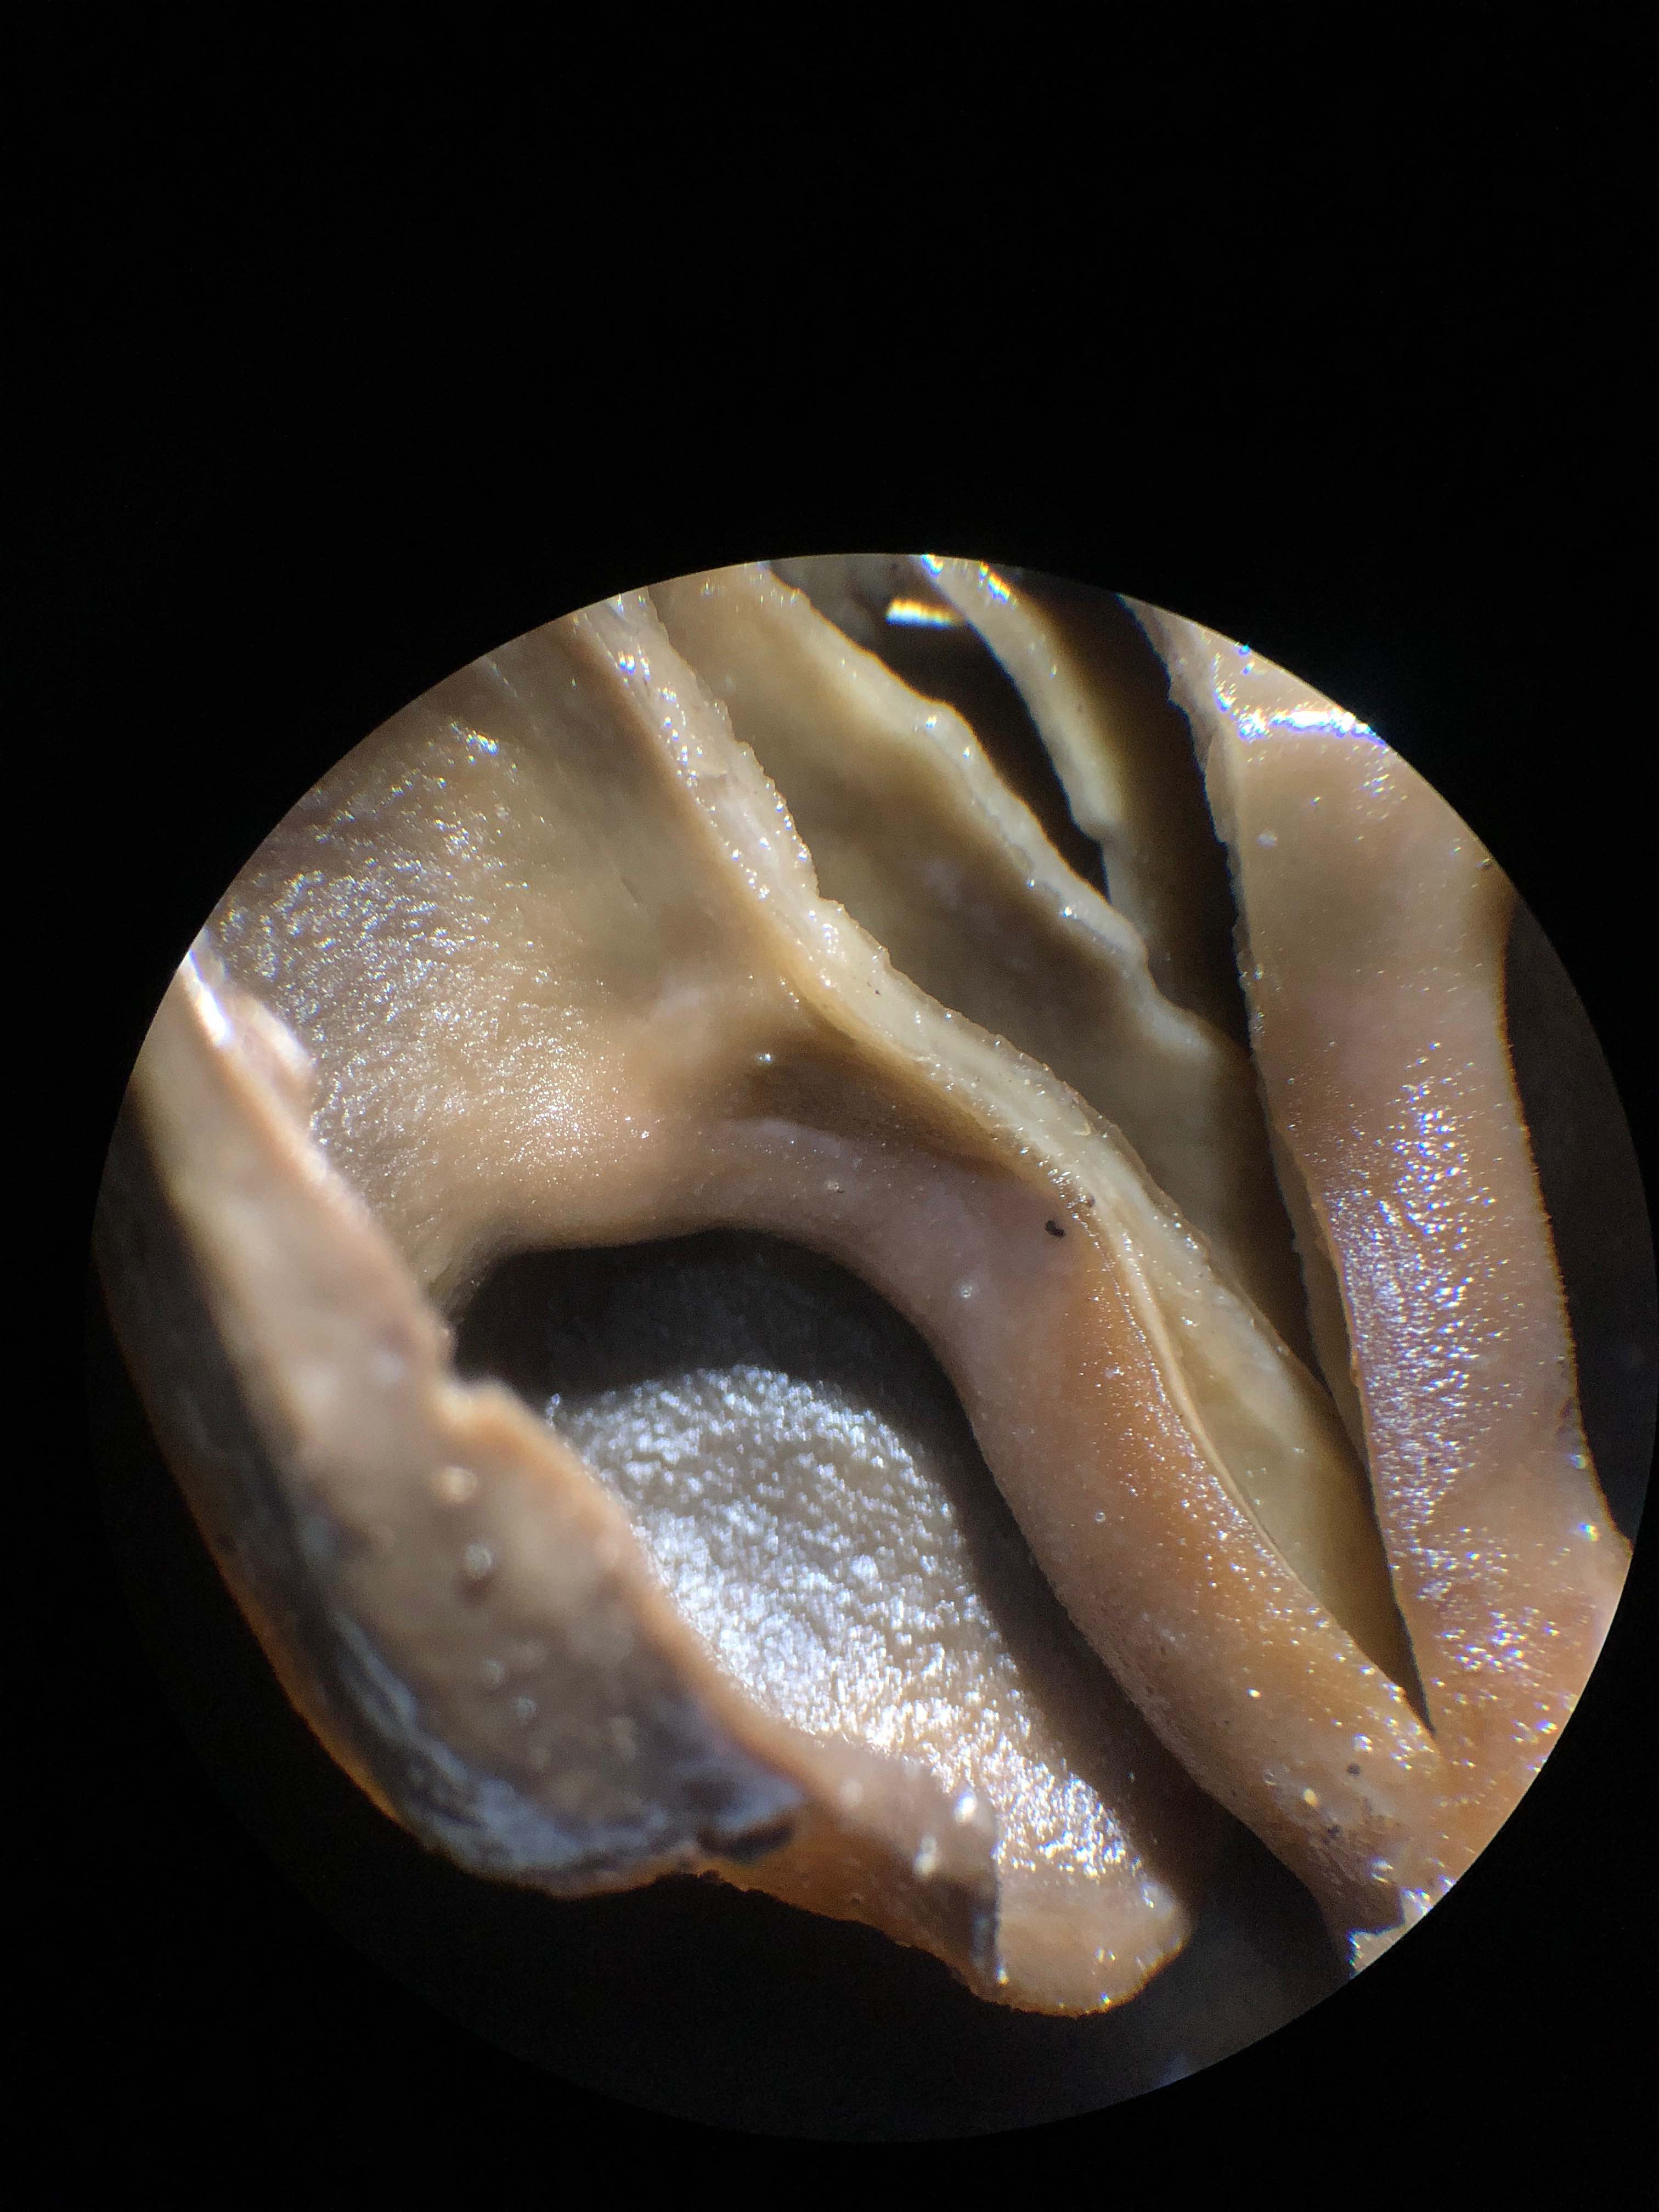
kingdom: Fungi
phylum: Ascomycota
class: Pezizomycetes
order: Pezizales
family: Helvellaceae
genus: Helvella
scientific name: Helvella
